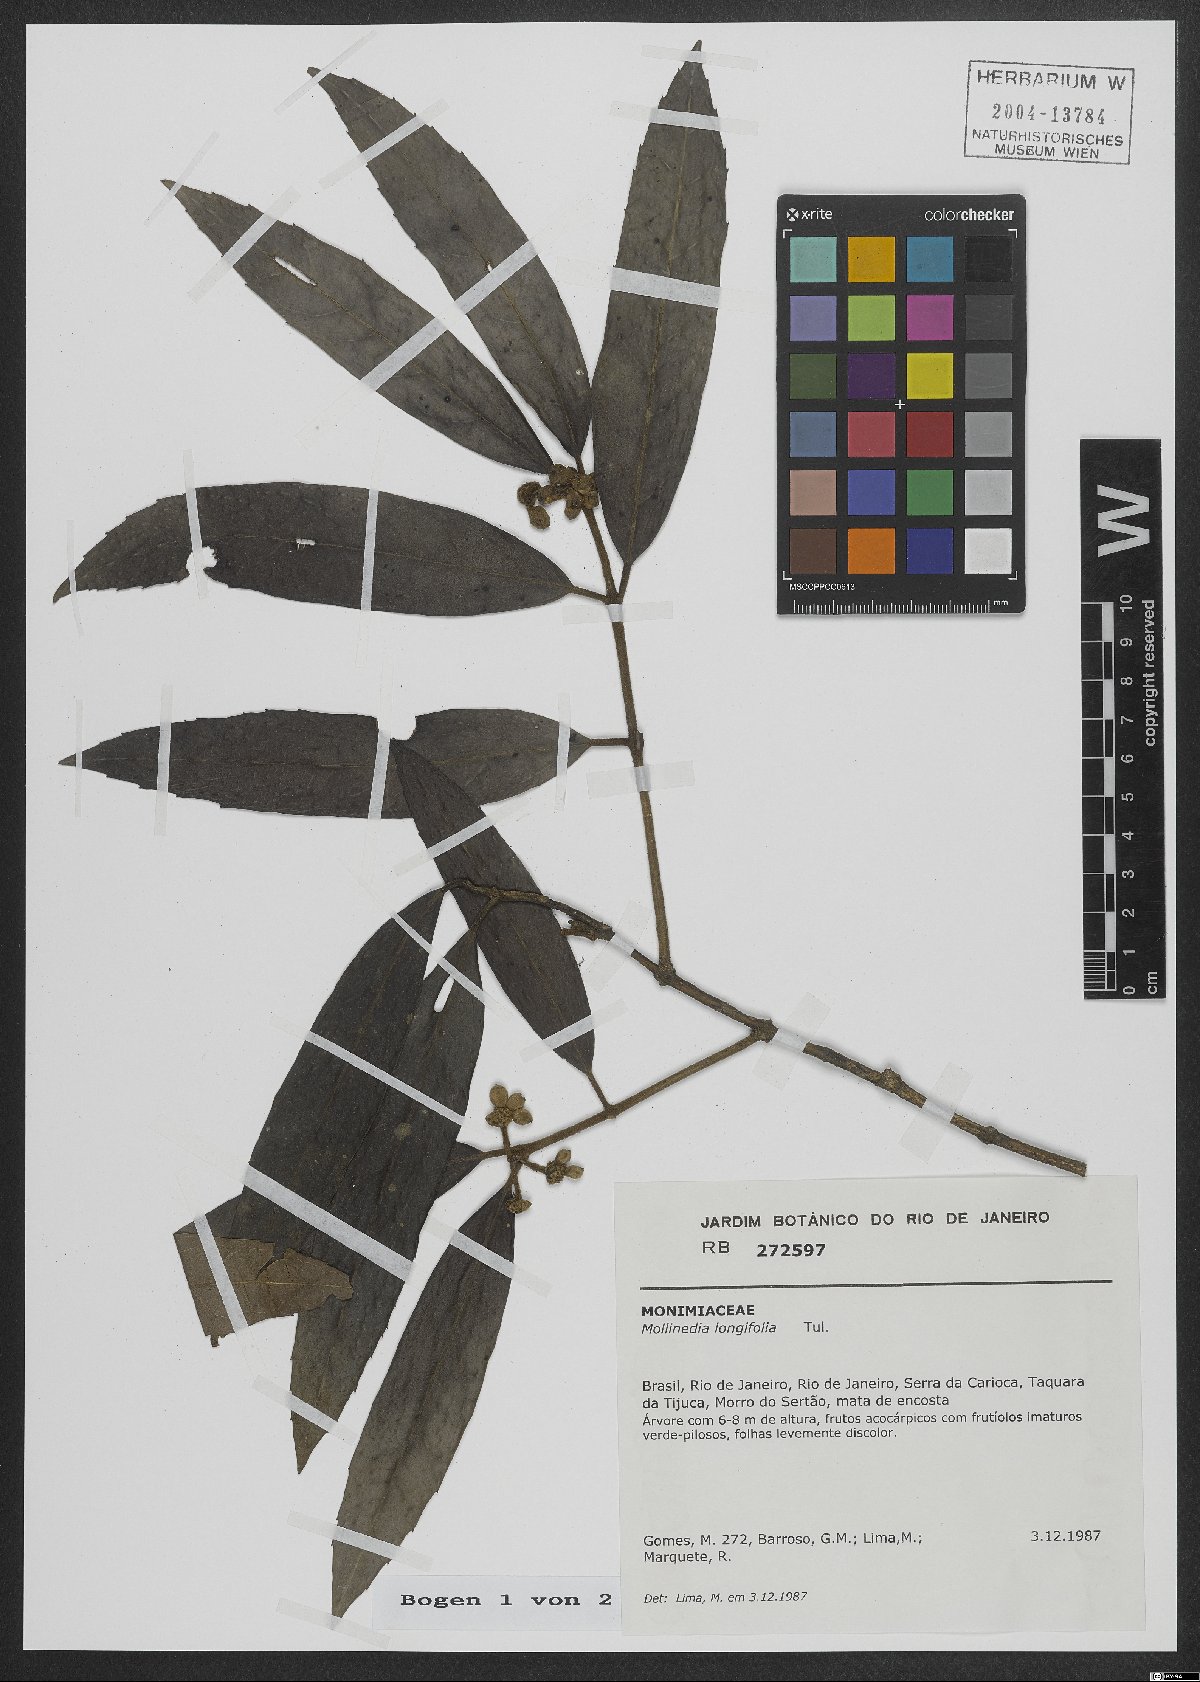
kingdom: Plantae
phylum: Tracheophyta
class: Magnoliopsida
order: Laurales
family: Monimiaceae
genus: Mollinedia
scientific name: Mollinedia longifolia
